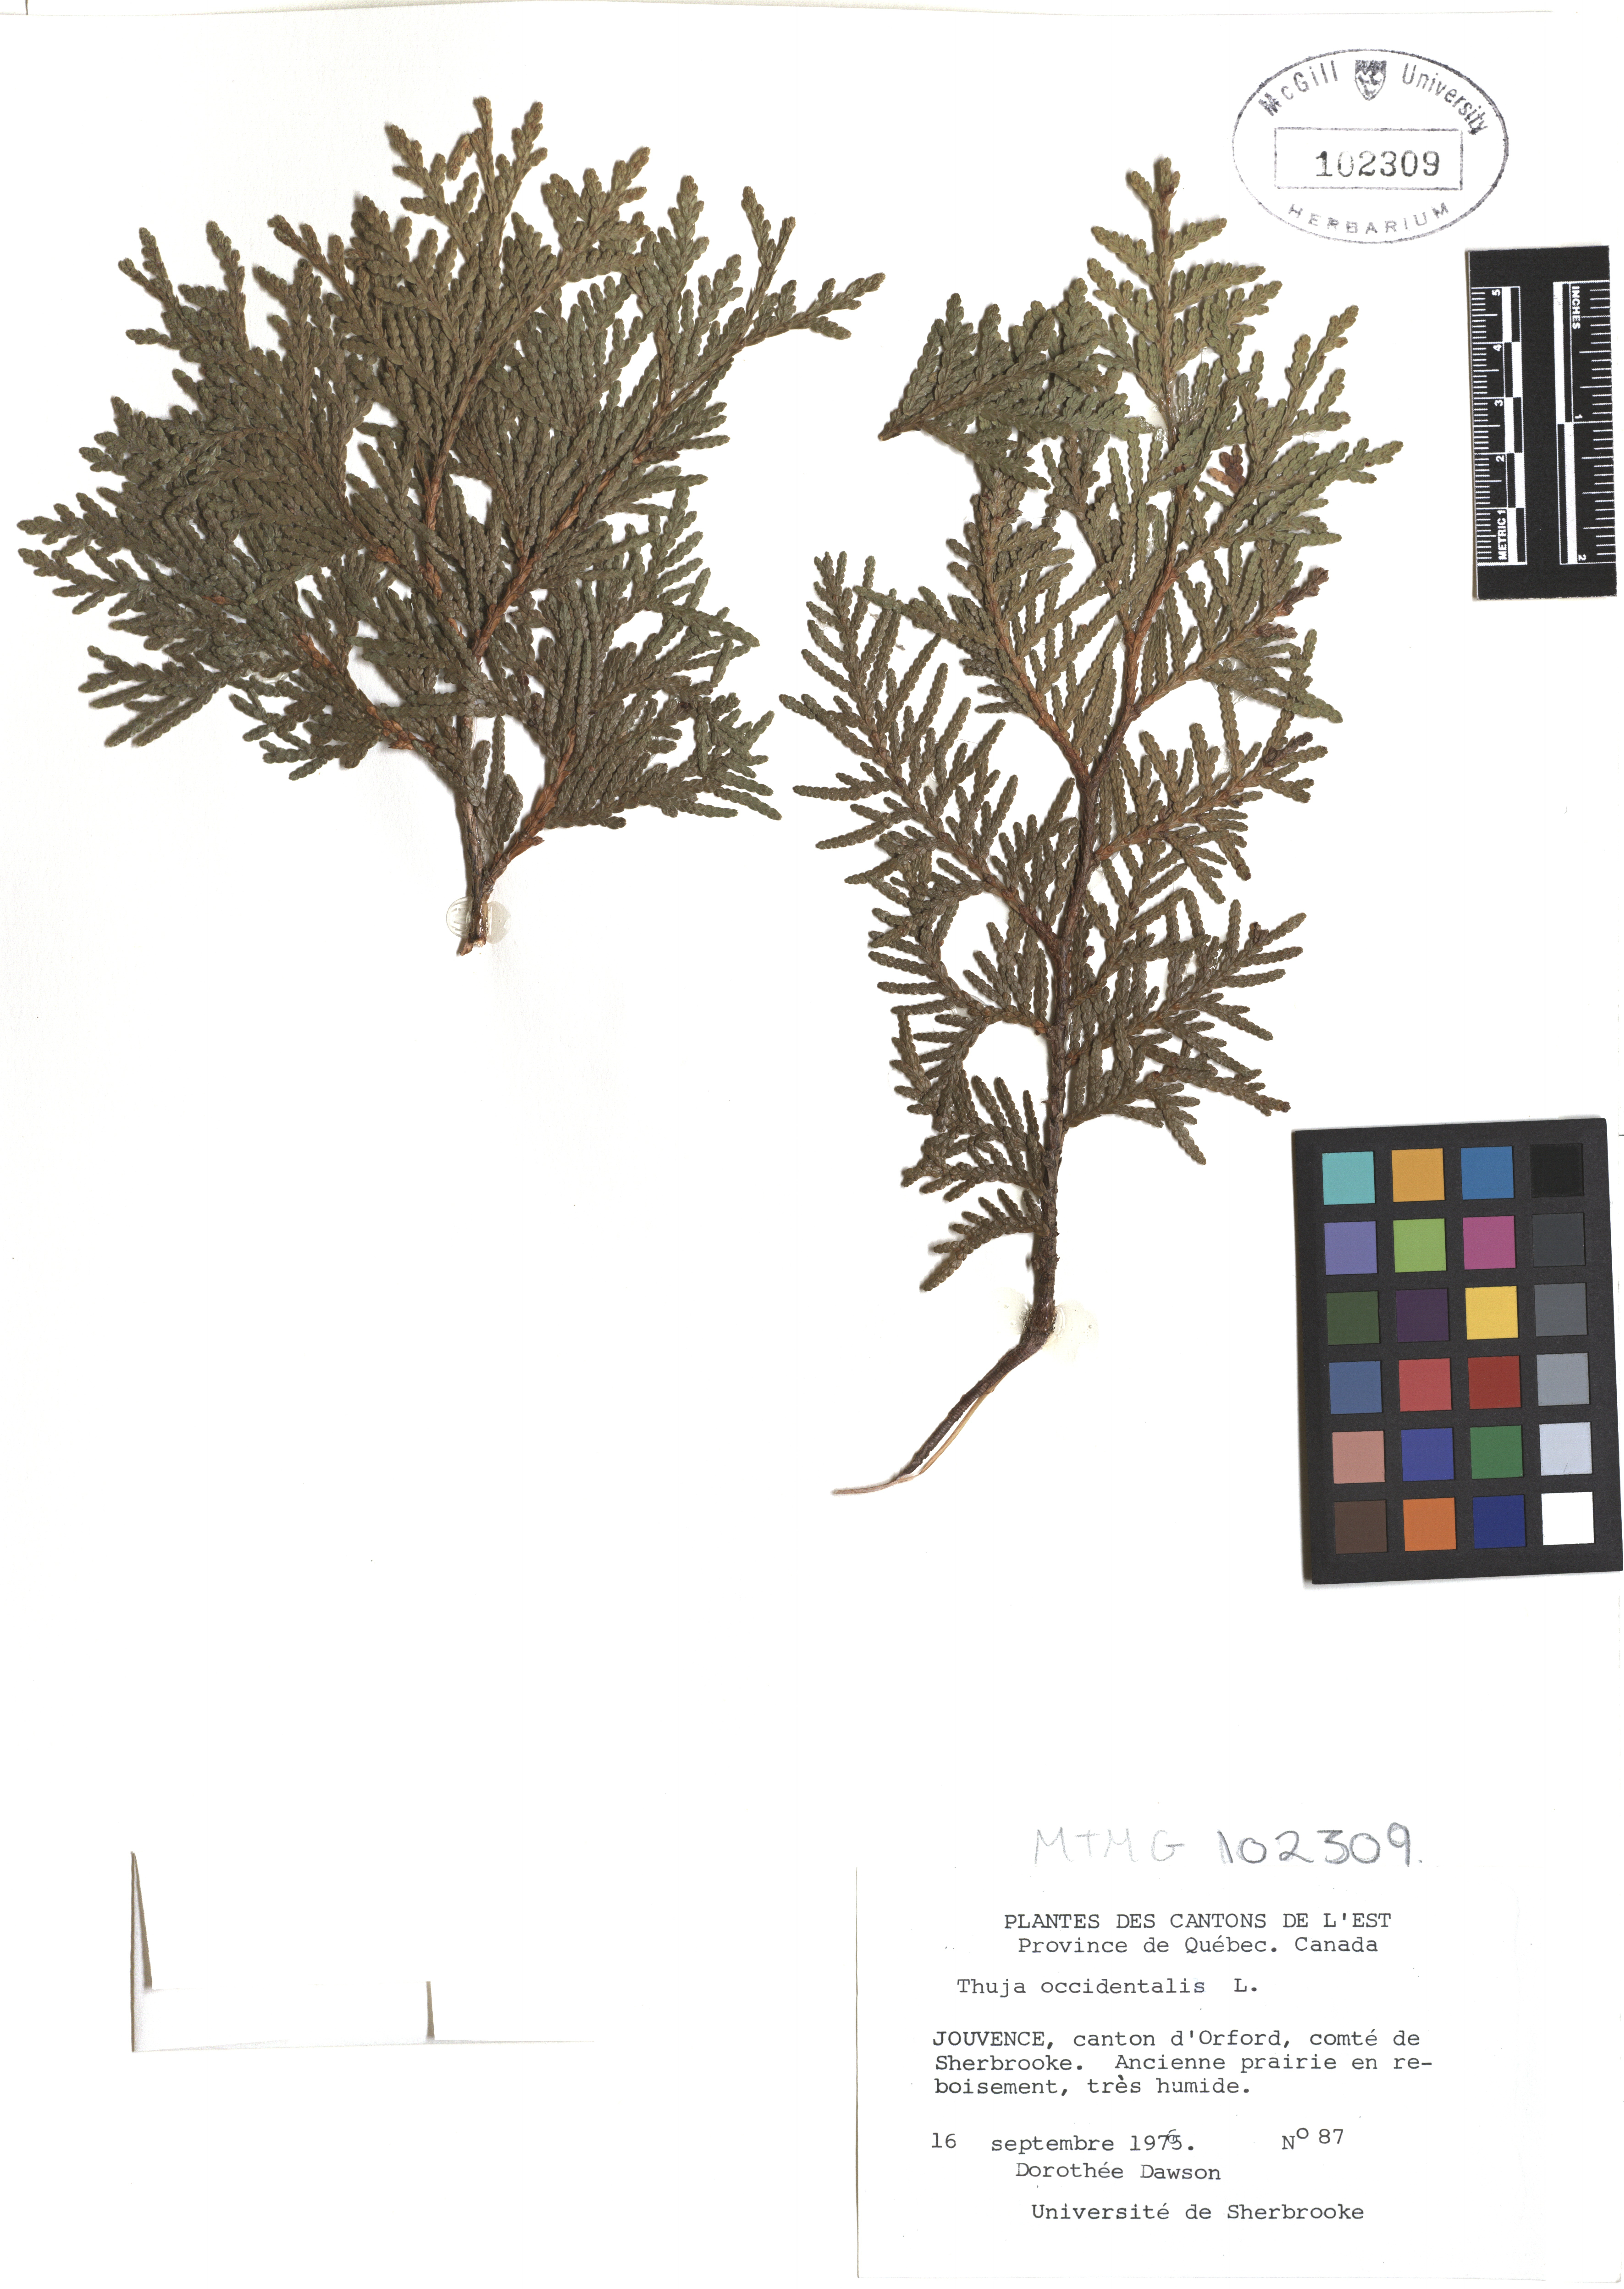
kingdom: Plantae
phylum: Tracheophyta
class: Pinopsida
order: Pinales
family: Cupressaceae
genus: Thuja
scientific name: Thuja occidentalis
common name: Northern white-cedar
